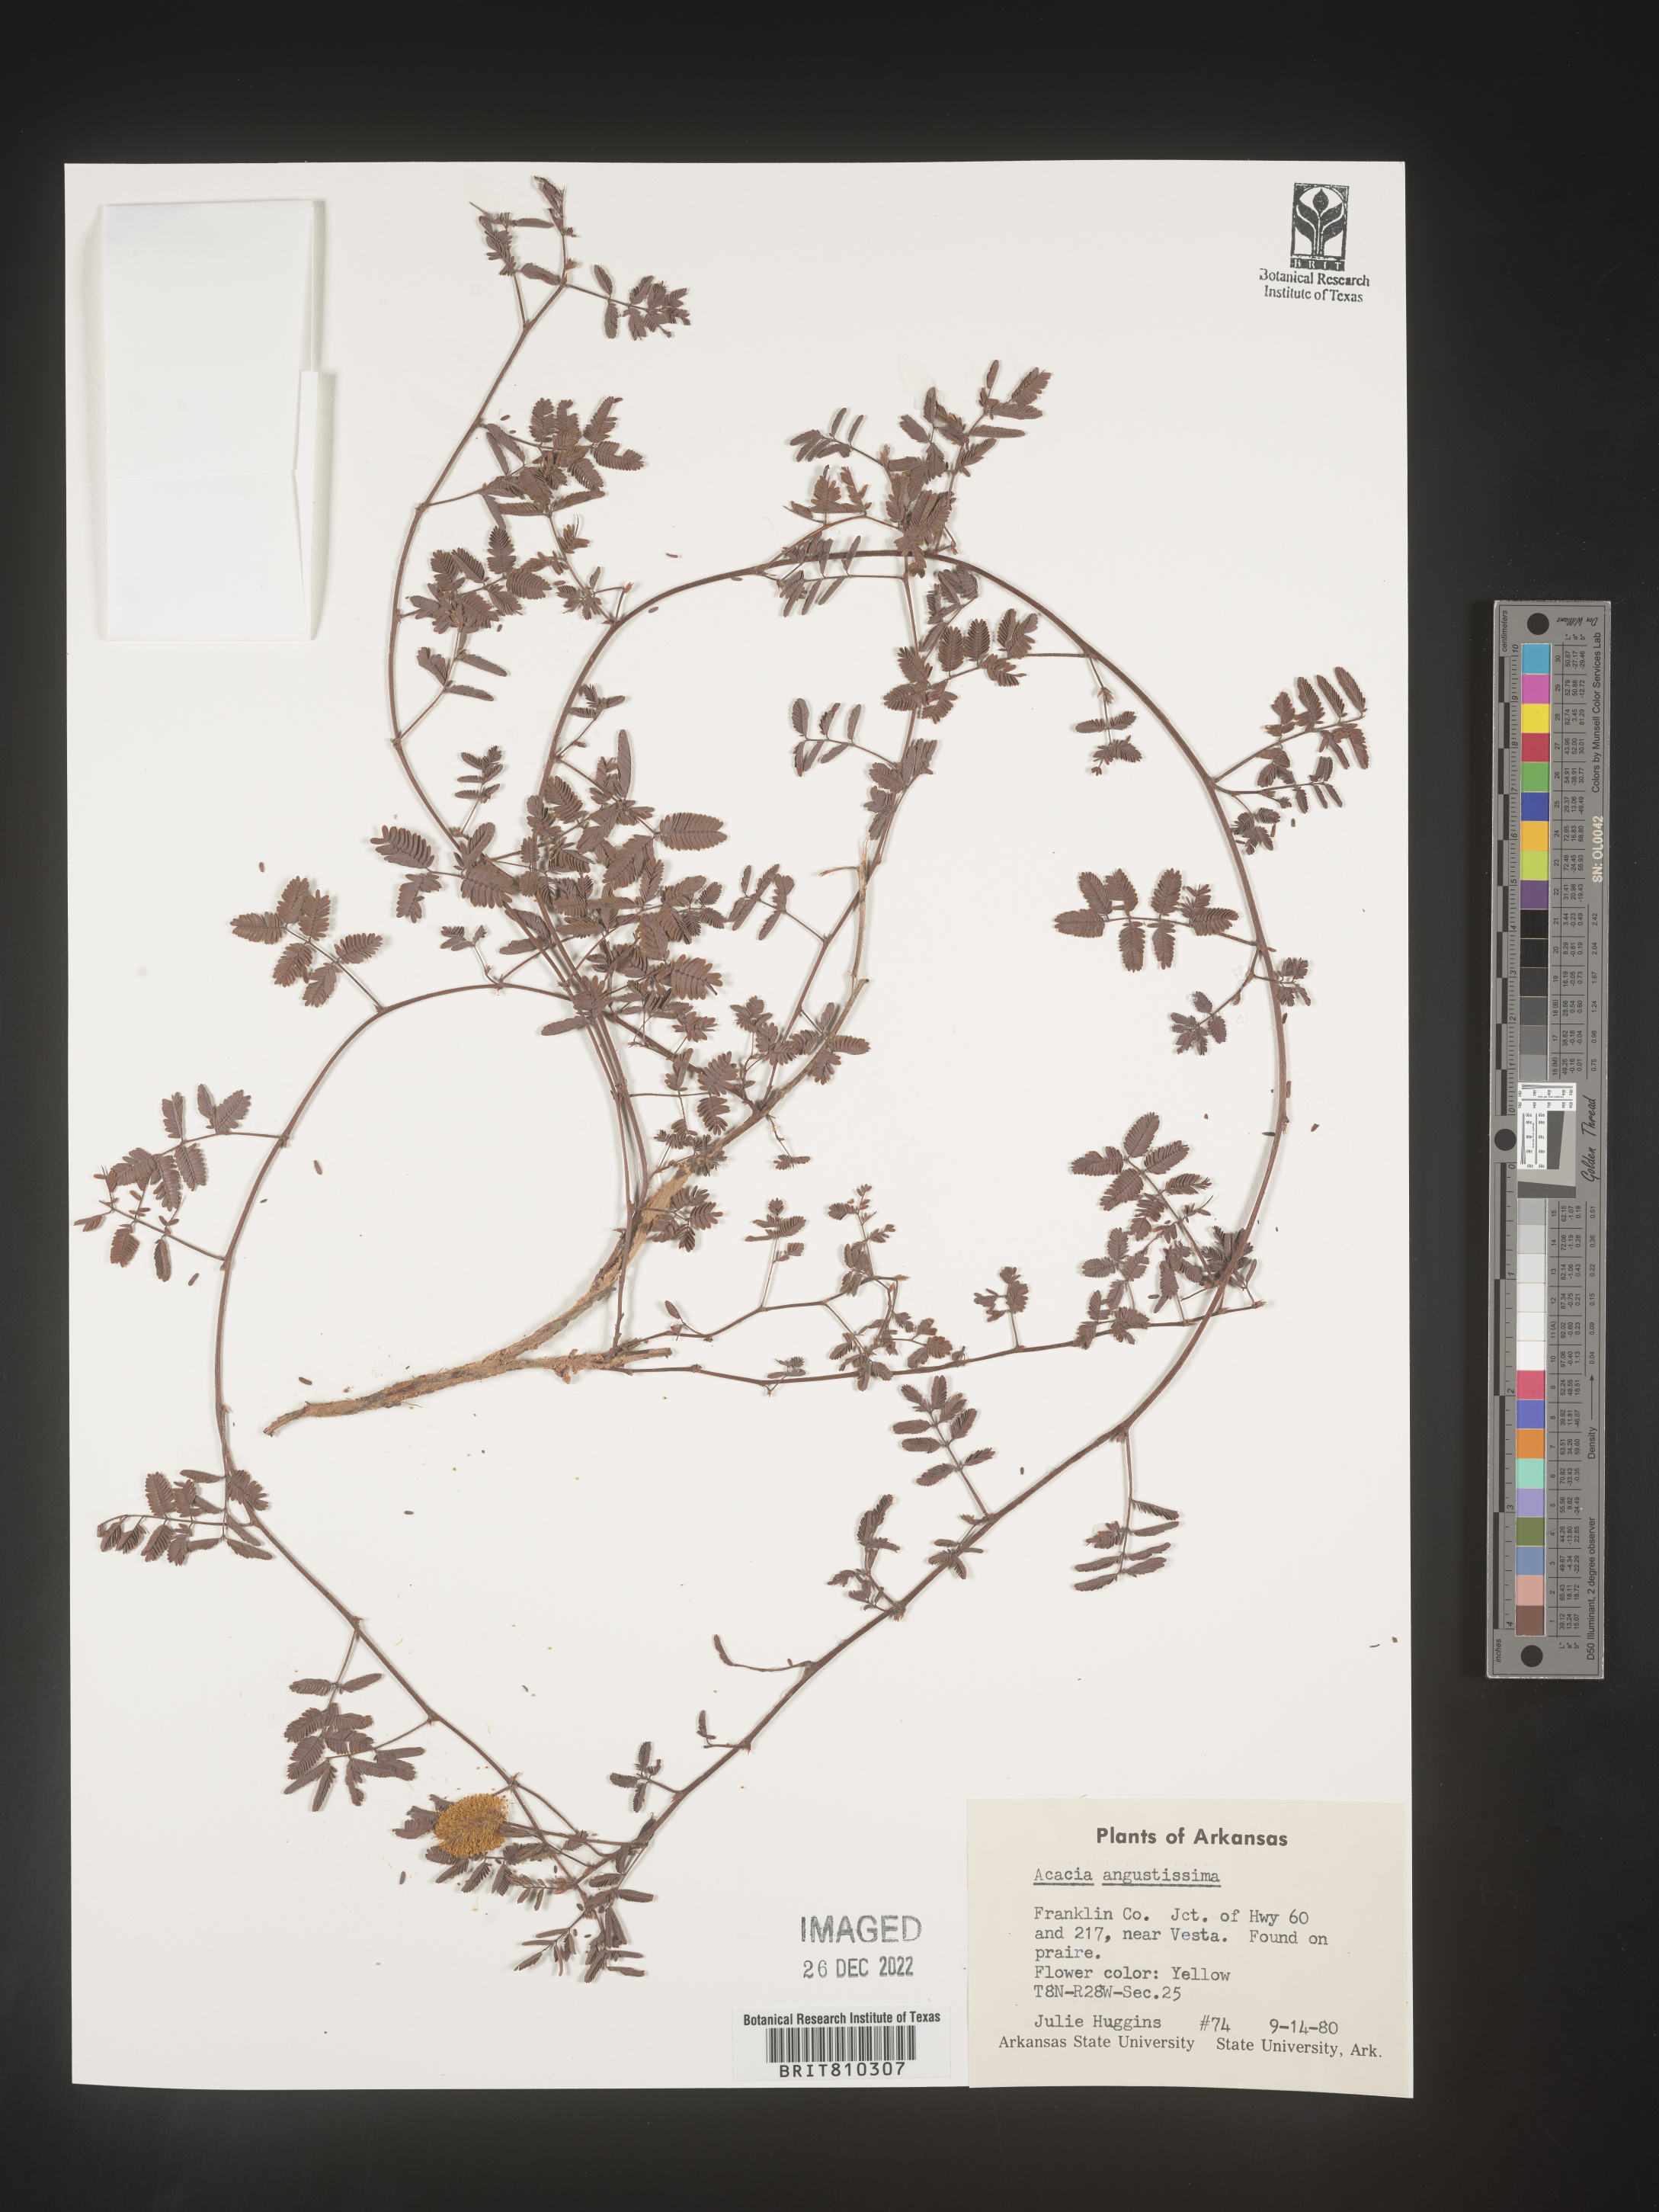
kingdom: Plantae
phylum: Tracheophyta
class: Magnoliopsida
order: Fabales
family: Fabaceae
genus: Acaciella
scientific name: Acaciella angustissima
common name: Prairie acacia
